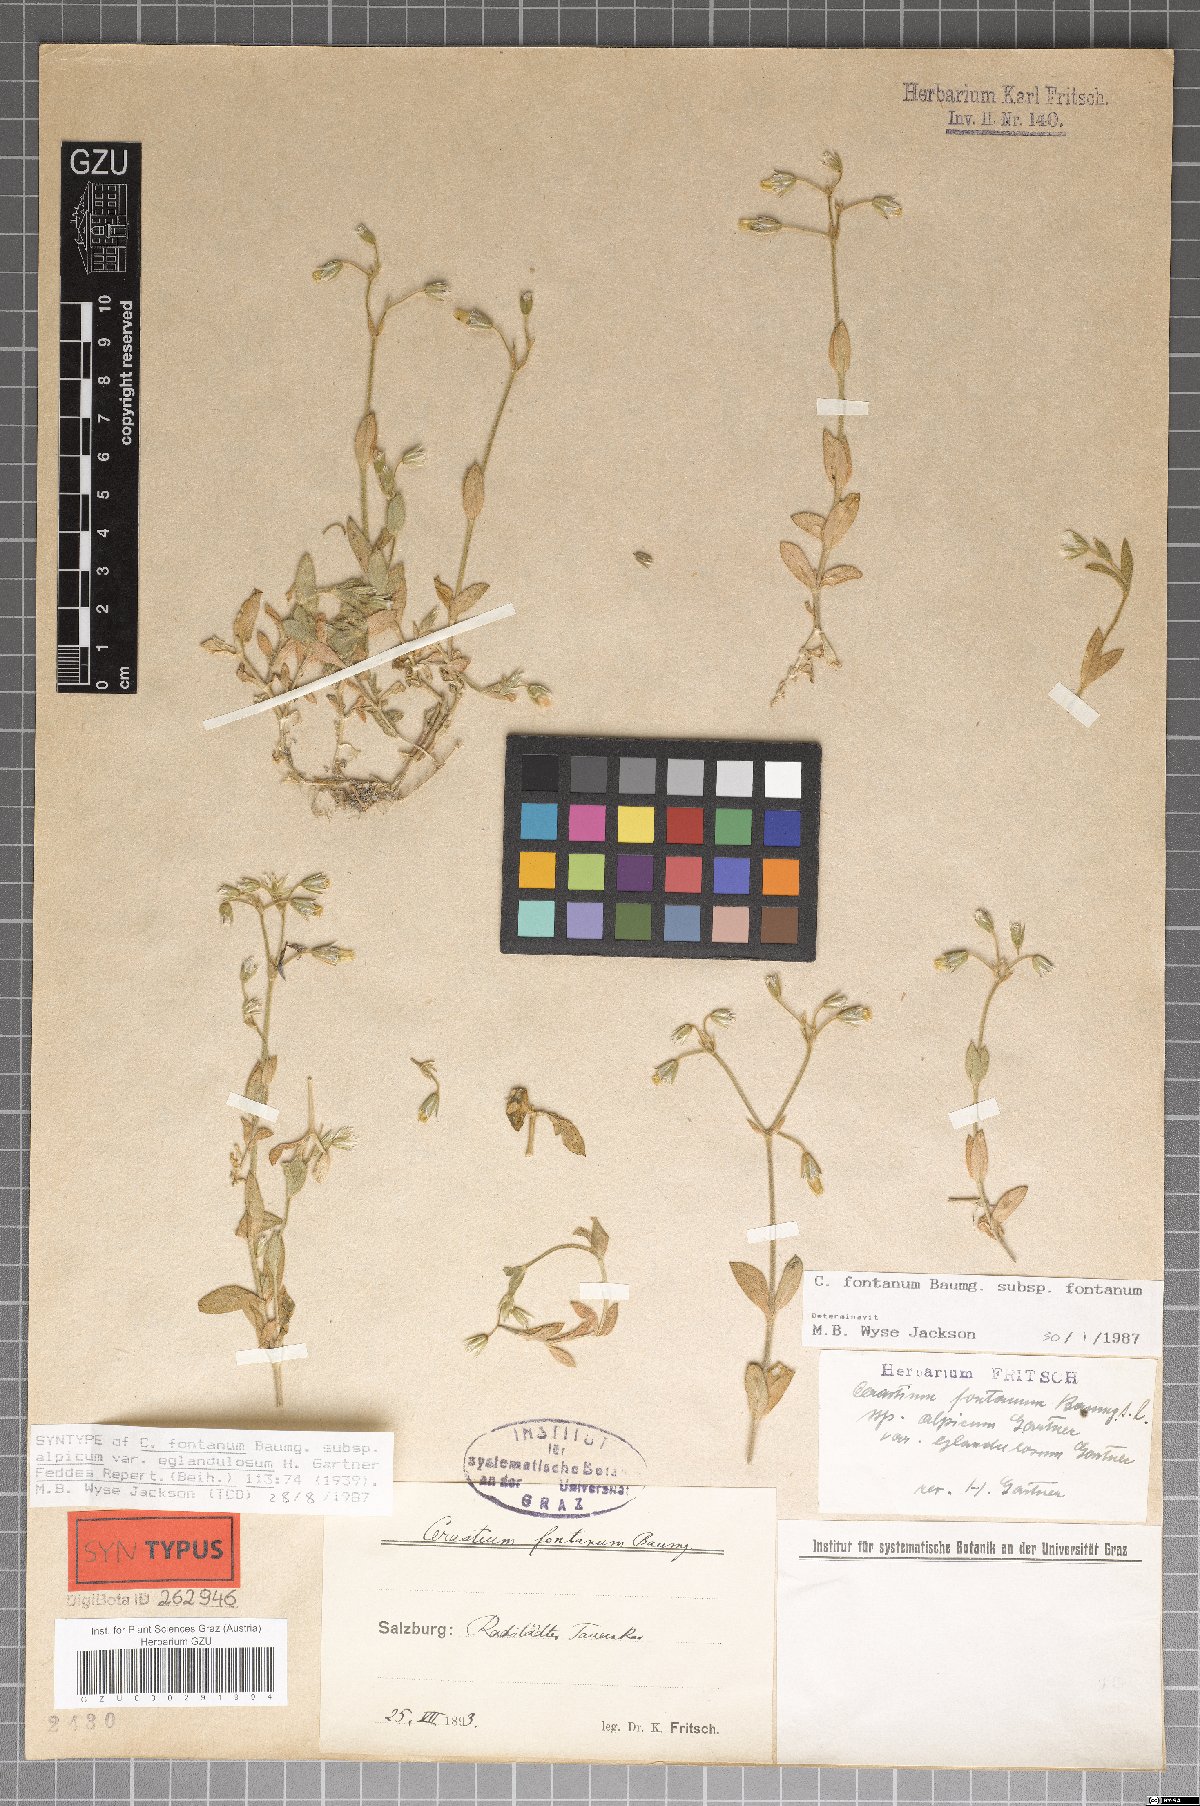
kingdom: Plantae
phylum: Tracheophyta
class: Magnoliopsida
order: Caryophyllales
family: Caryophyllaceae
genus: Cerastium
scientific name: Cerastium holosteoides
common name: Big chickweed
